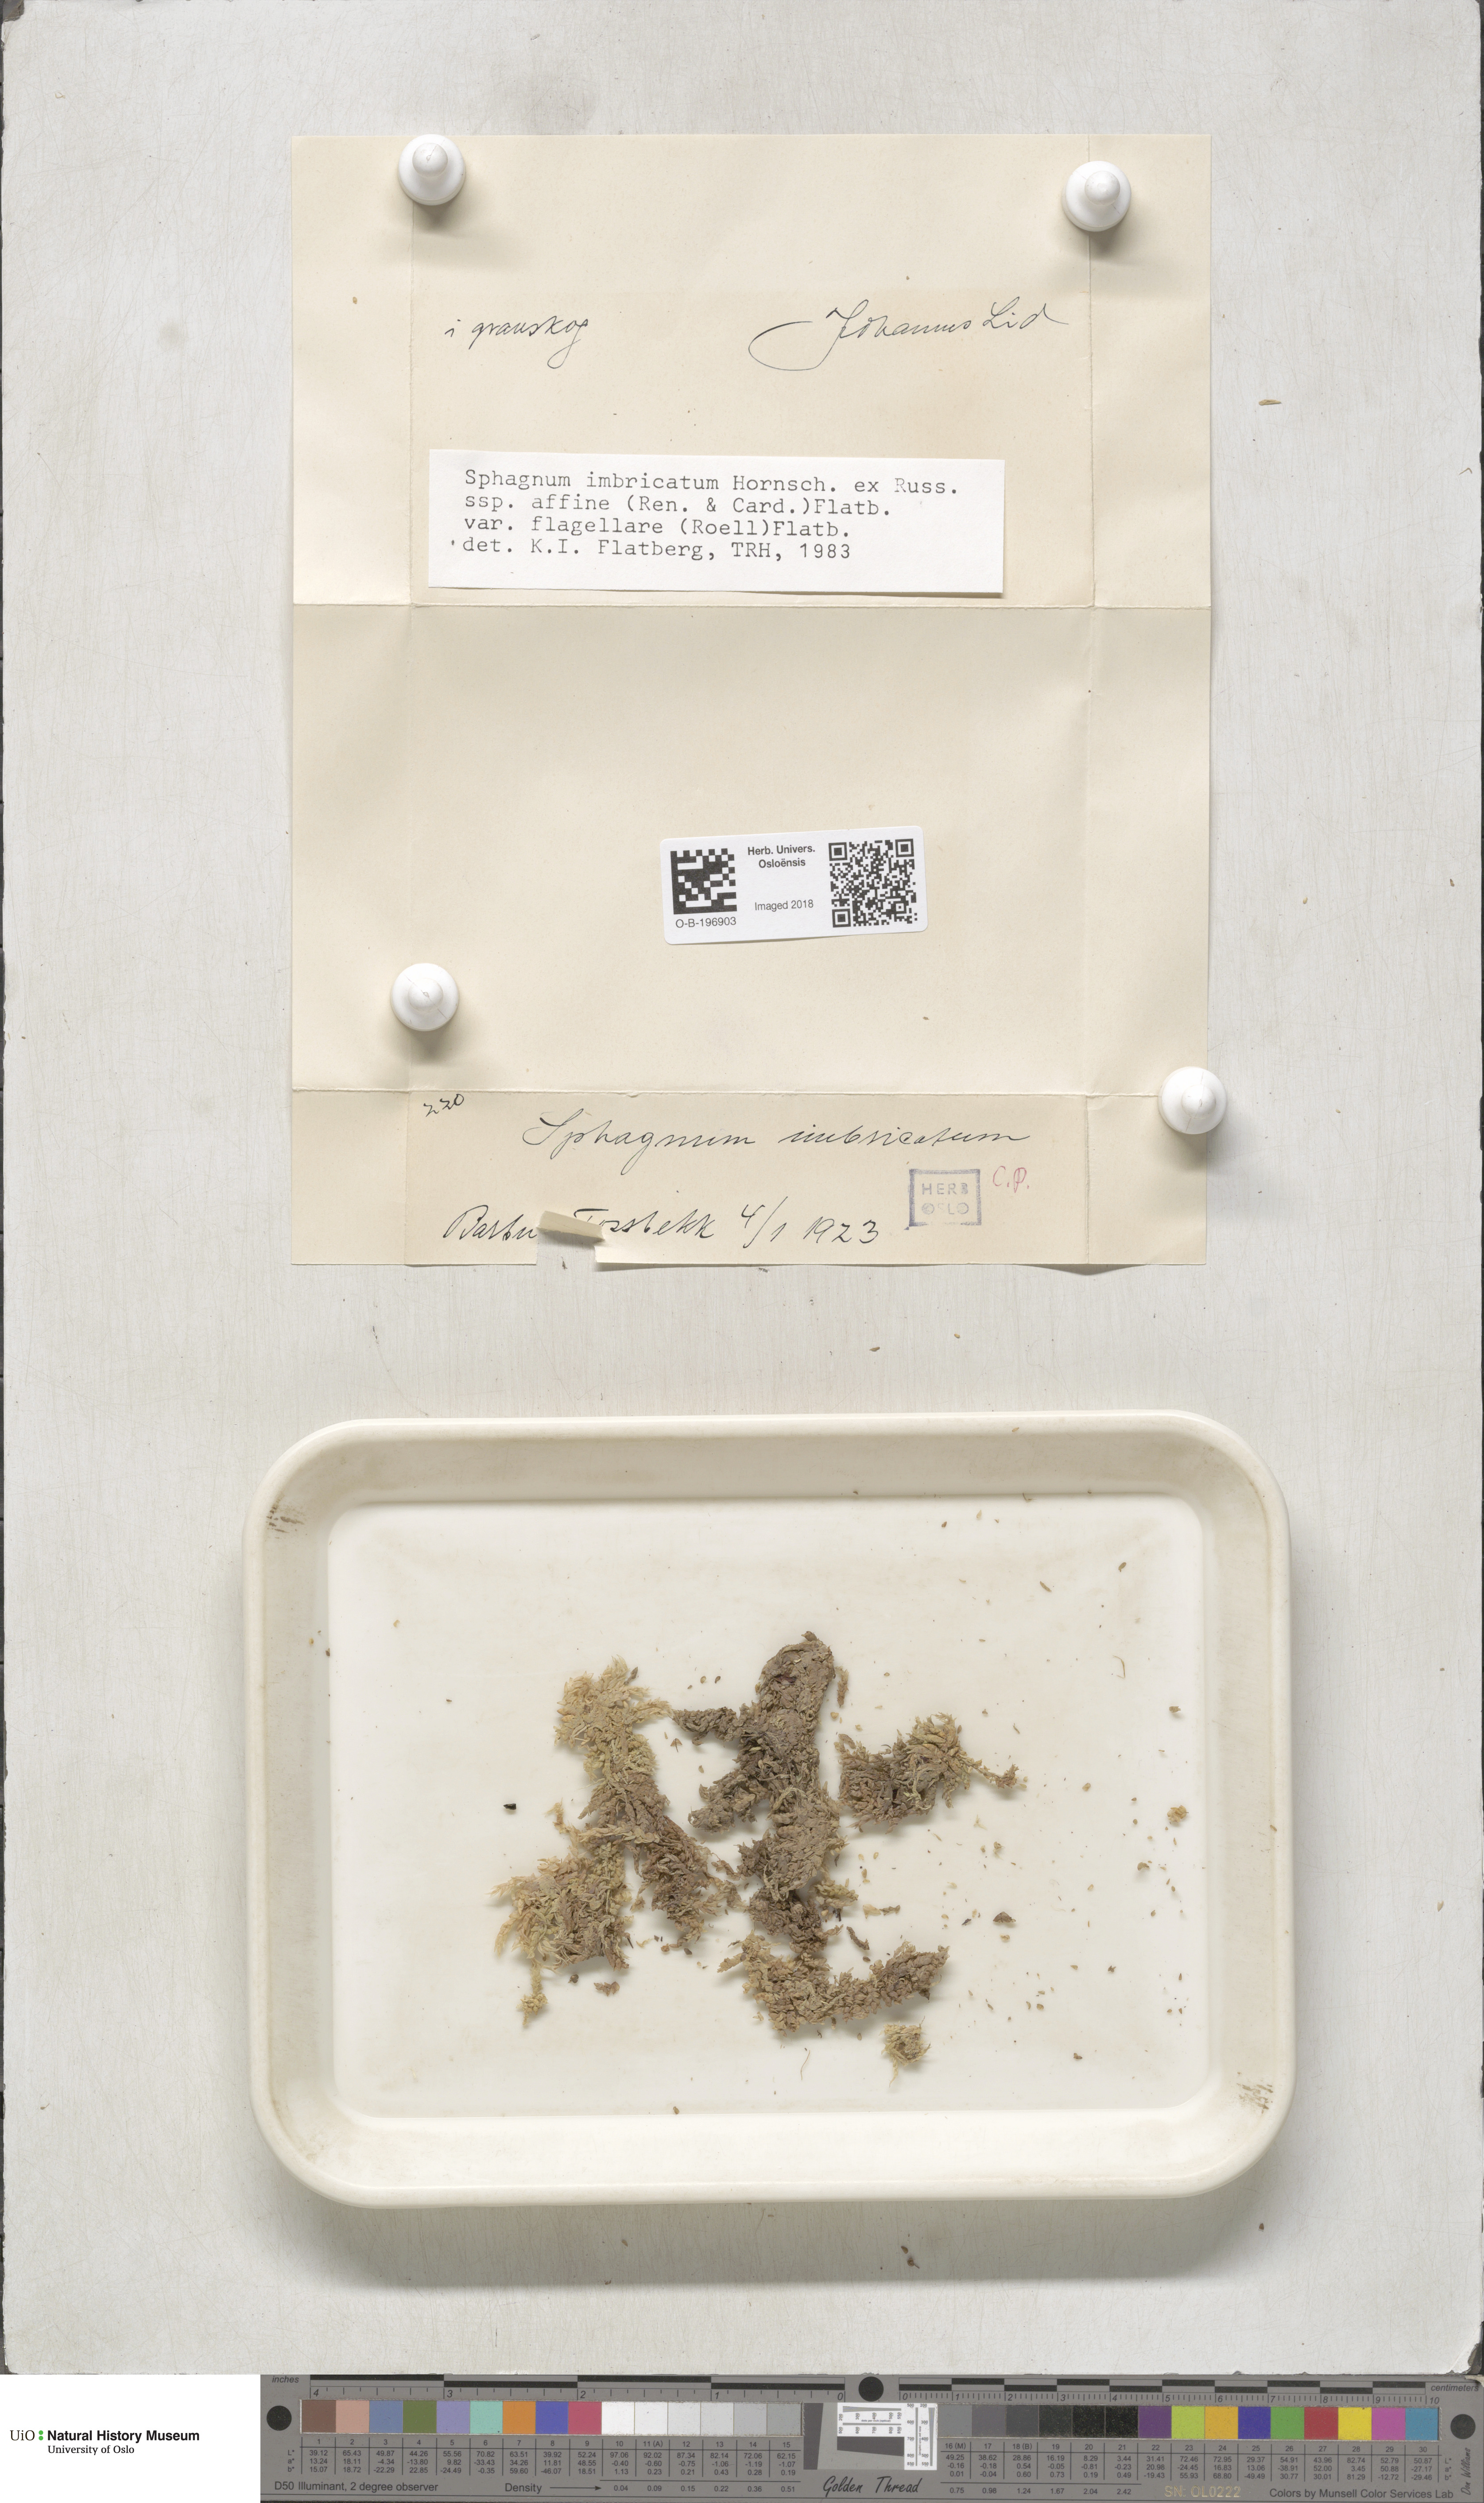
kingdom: Plantae
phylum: Bryophyta
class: Sphagnopsida
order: Sphagnales
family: Sphagnaceae
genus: Sphagnum
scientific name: Sphagnum affine
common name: Imbricate peat moss
